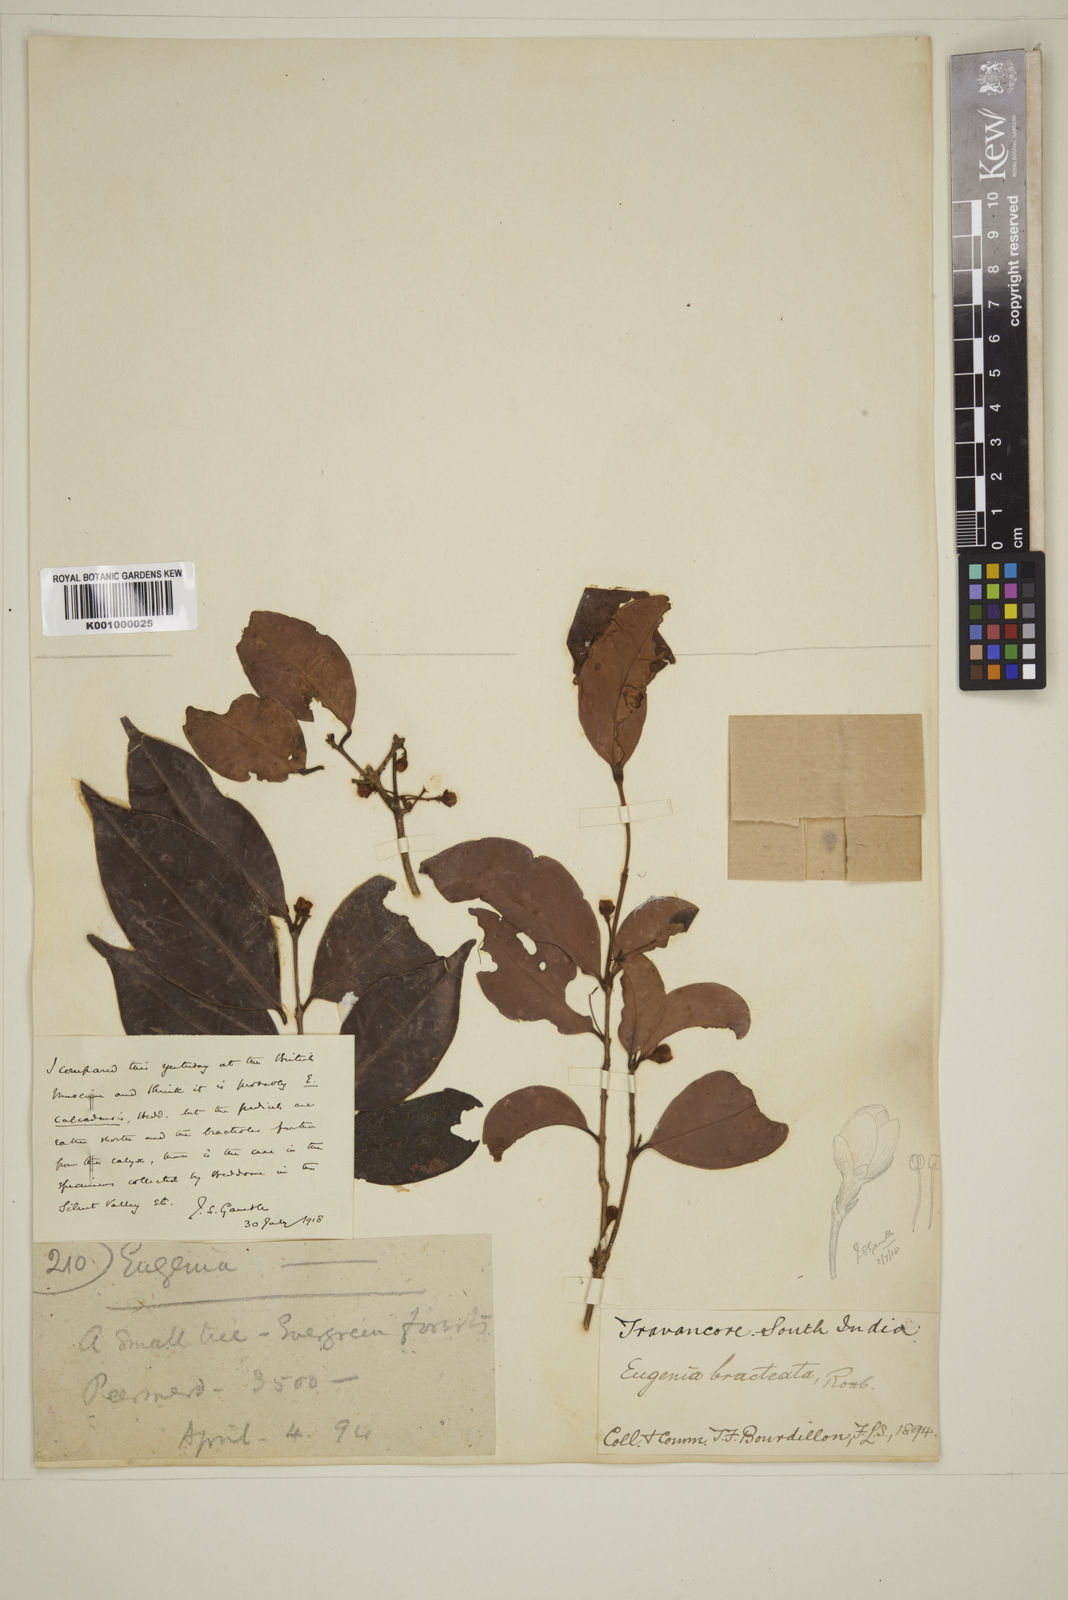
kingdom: Plantae
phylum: Tracheophyta
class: Magnoliopsida
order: Myrtales
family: Myrtaceae
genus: Syzygium
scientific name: Syzygium calcadense
